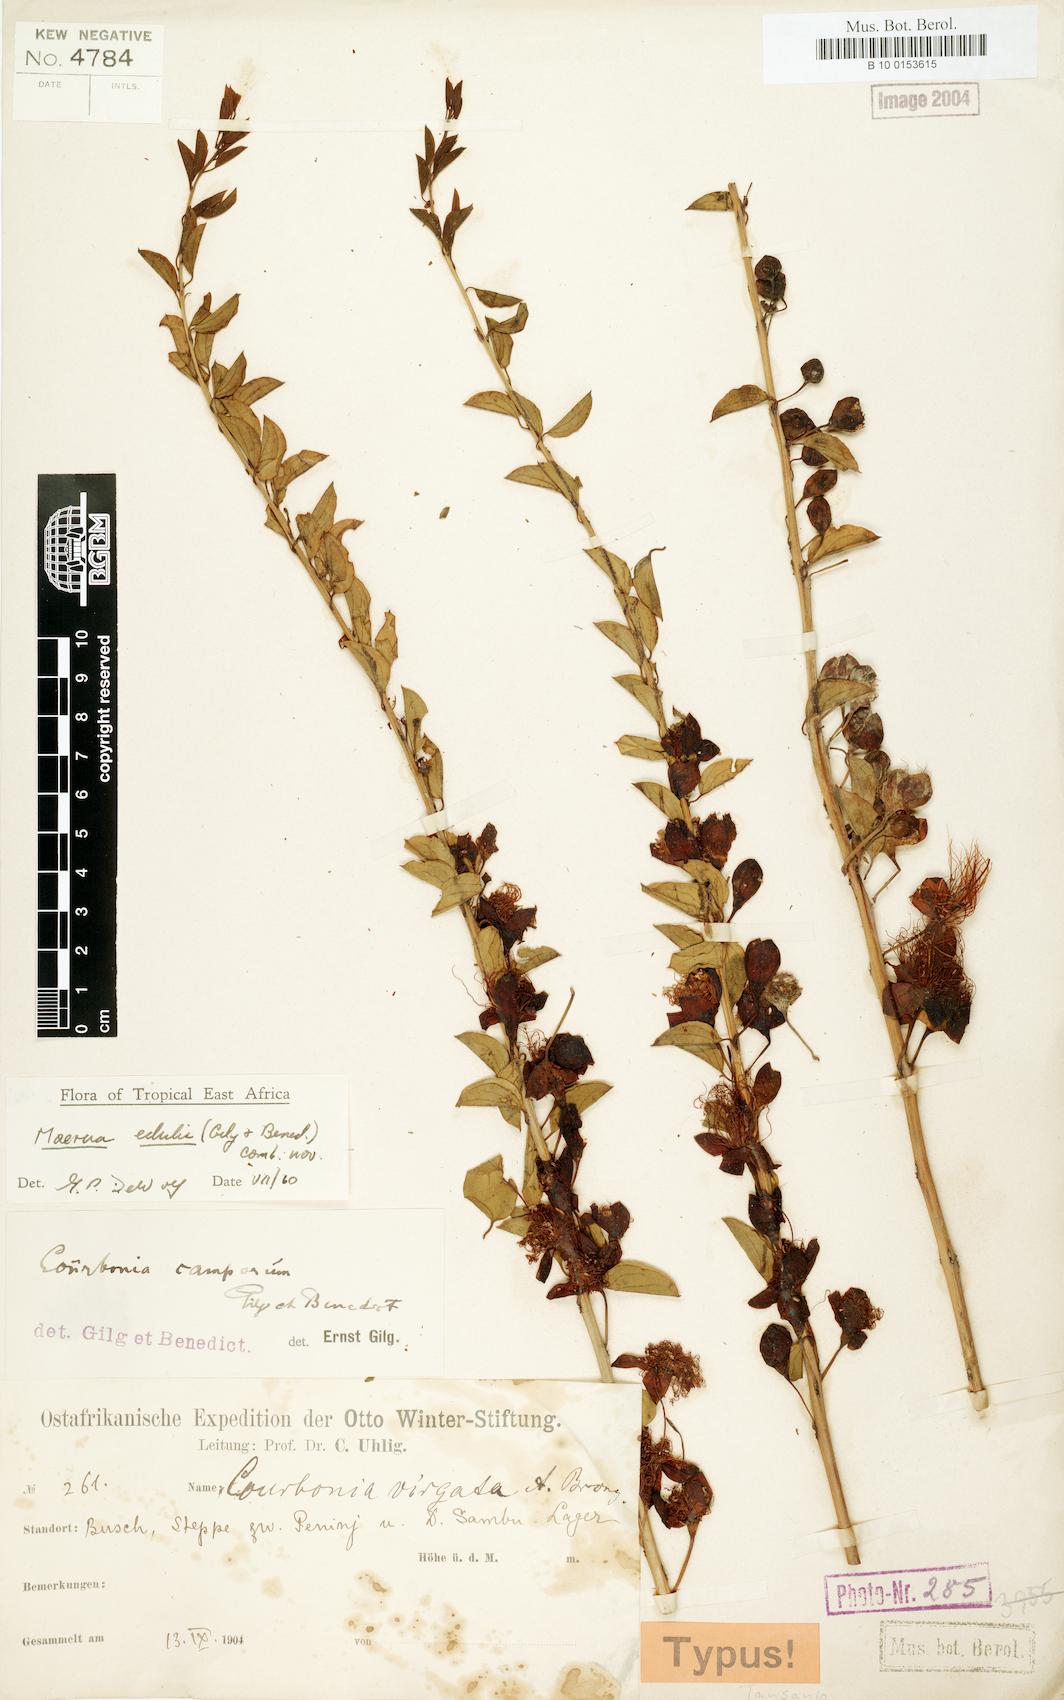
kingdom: Plantae
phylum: Tracheophyta
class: Magnoliopsida
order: Brassicales
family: Capparaceae
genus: Maerua
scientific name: Maerua edulis
